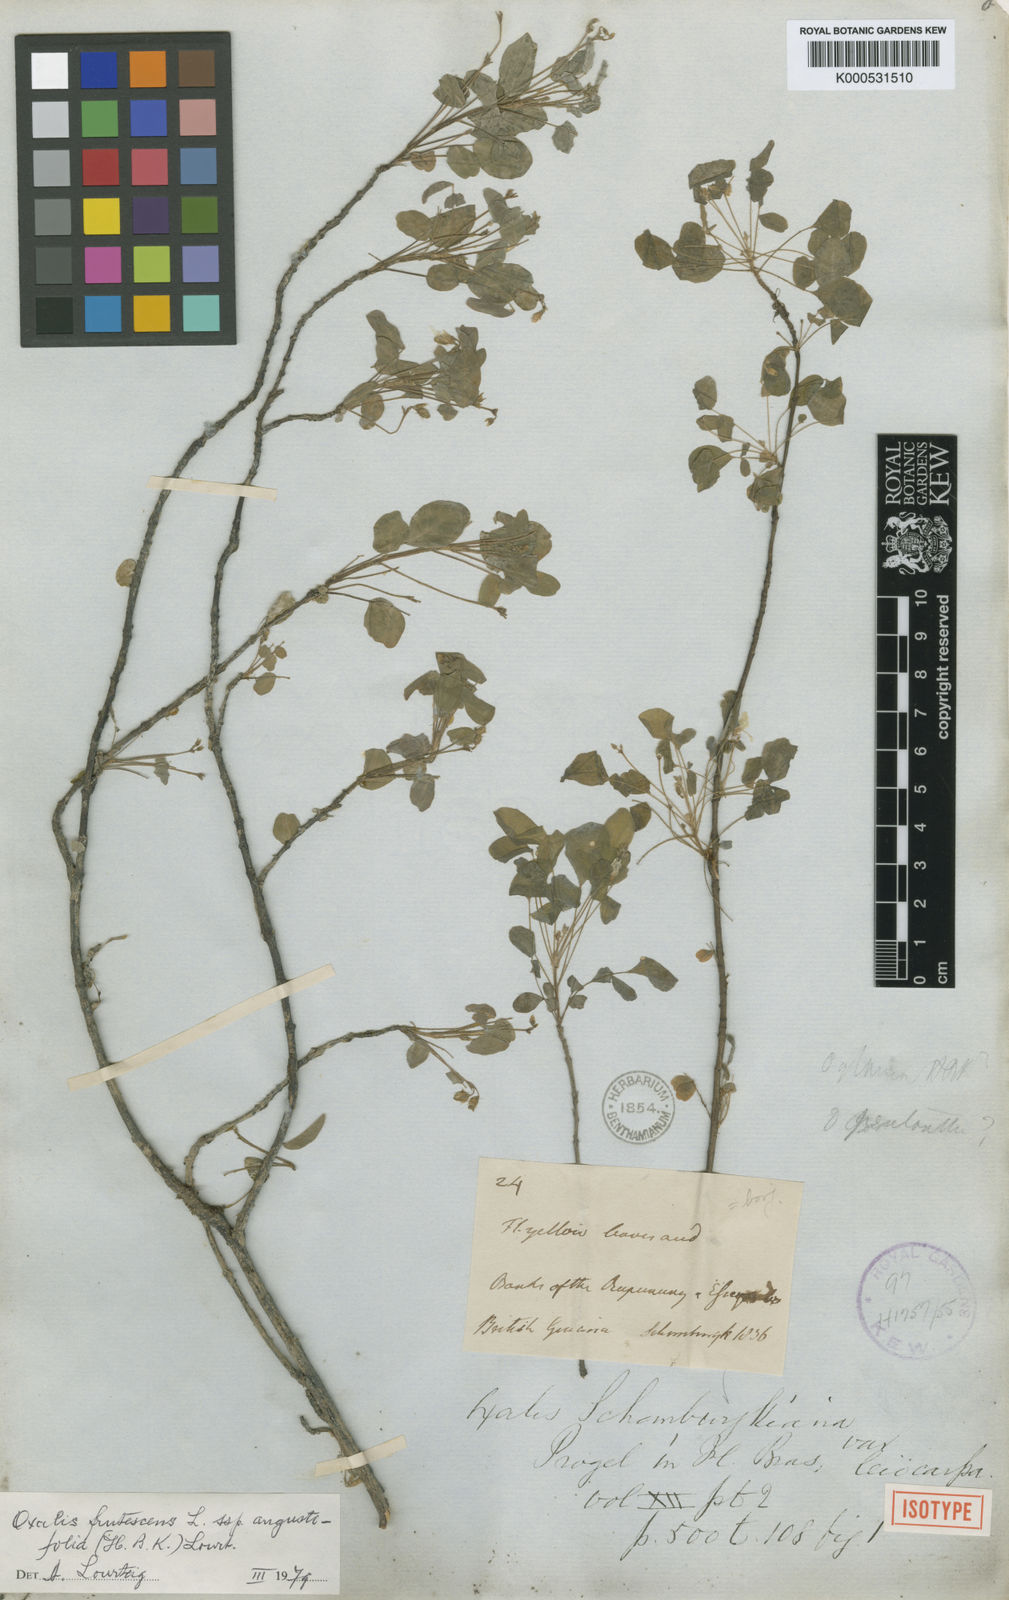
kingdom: Plantae
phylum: Tracheophyta
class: Magnoliopsida
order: Oxalidales
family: Oxalidaceae
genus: Oxalis
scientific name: Oxalis frutescens
